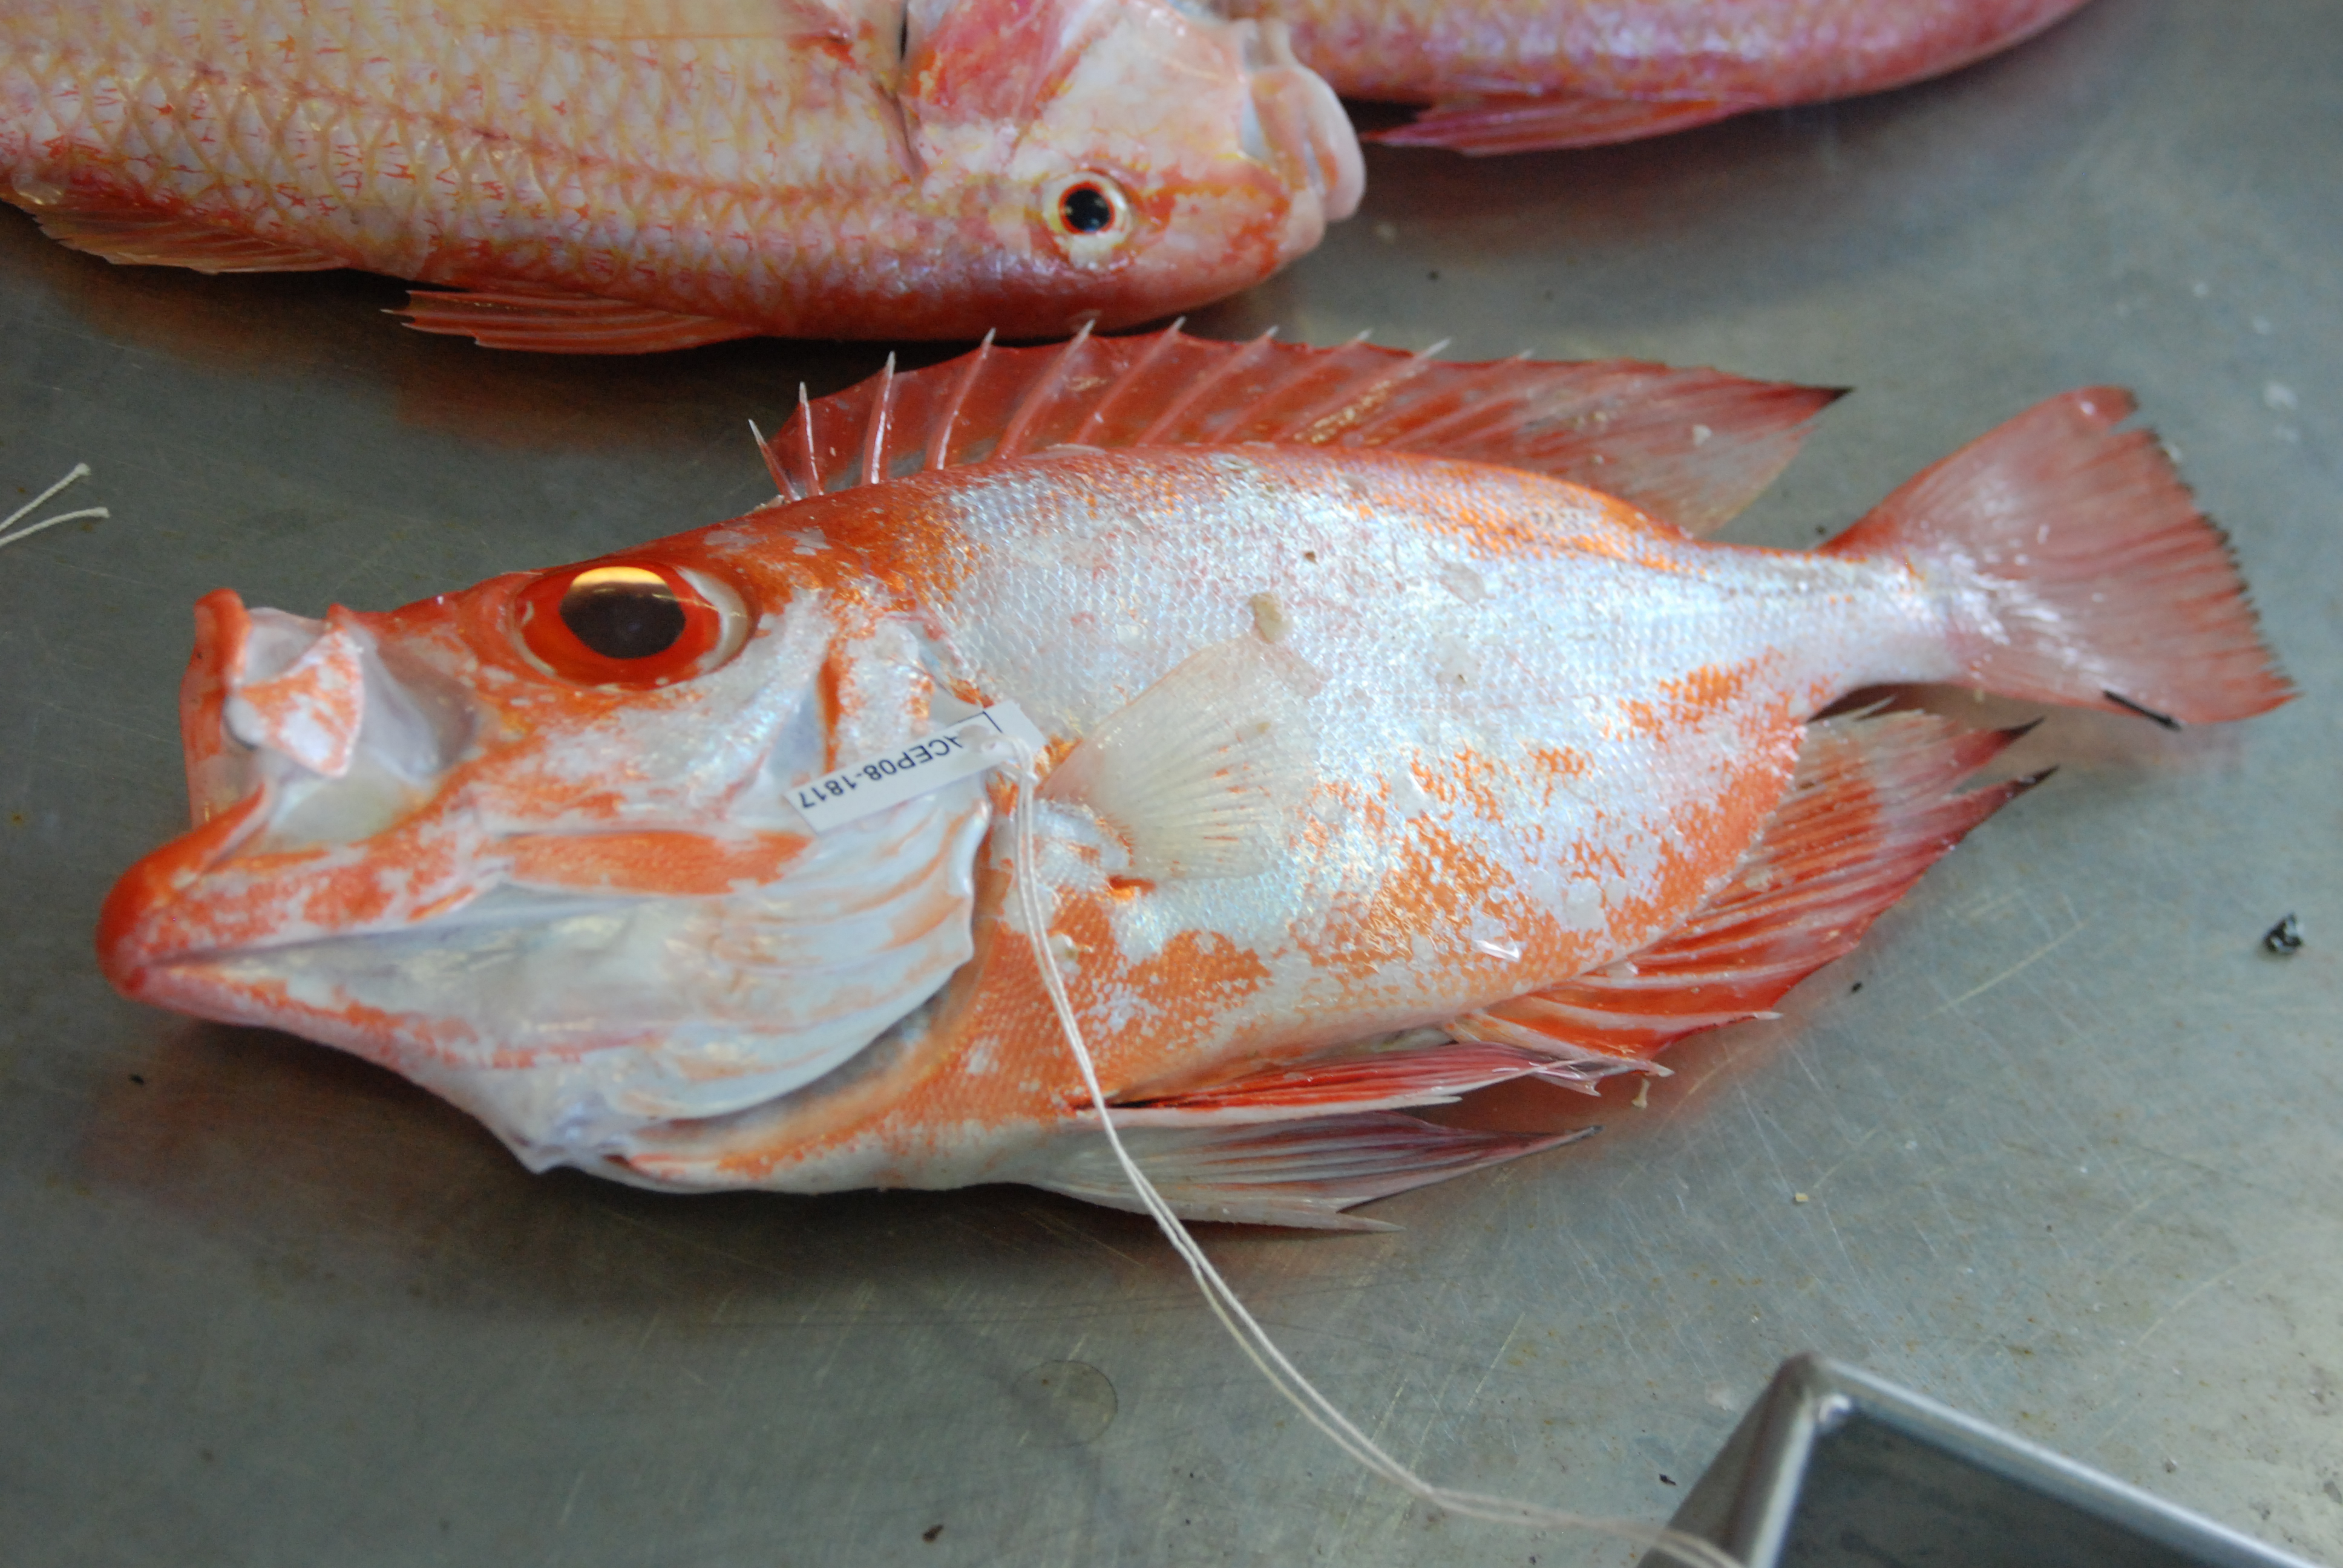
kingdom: Animalia
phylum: Chordata
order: Perciformes
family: Priacanthidae
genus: Priacanthus
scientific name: Priacanthus hamrur
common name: Moontail bullseye
